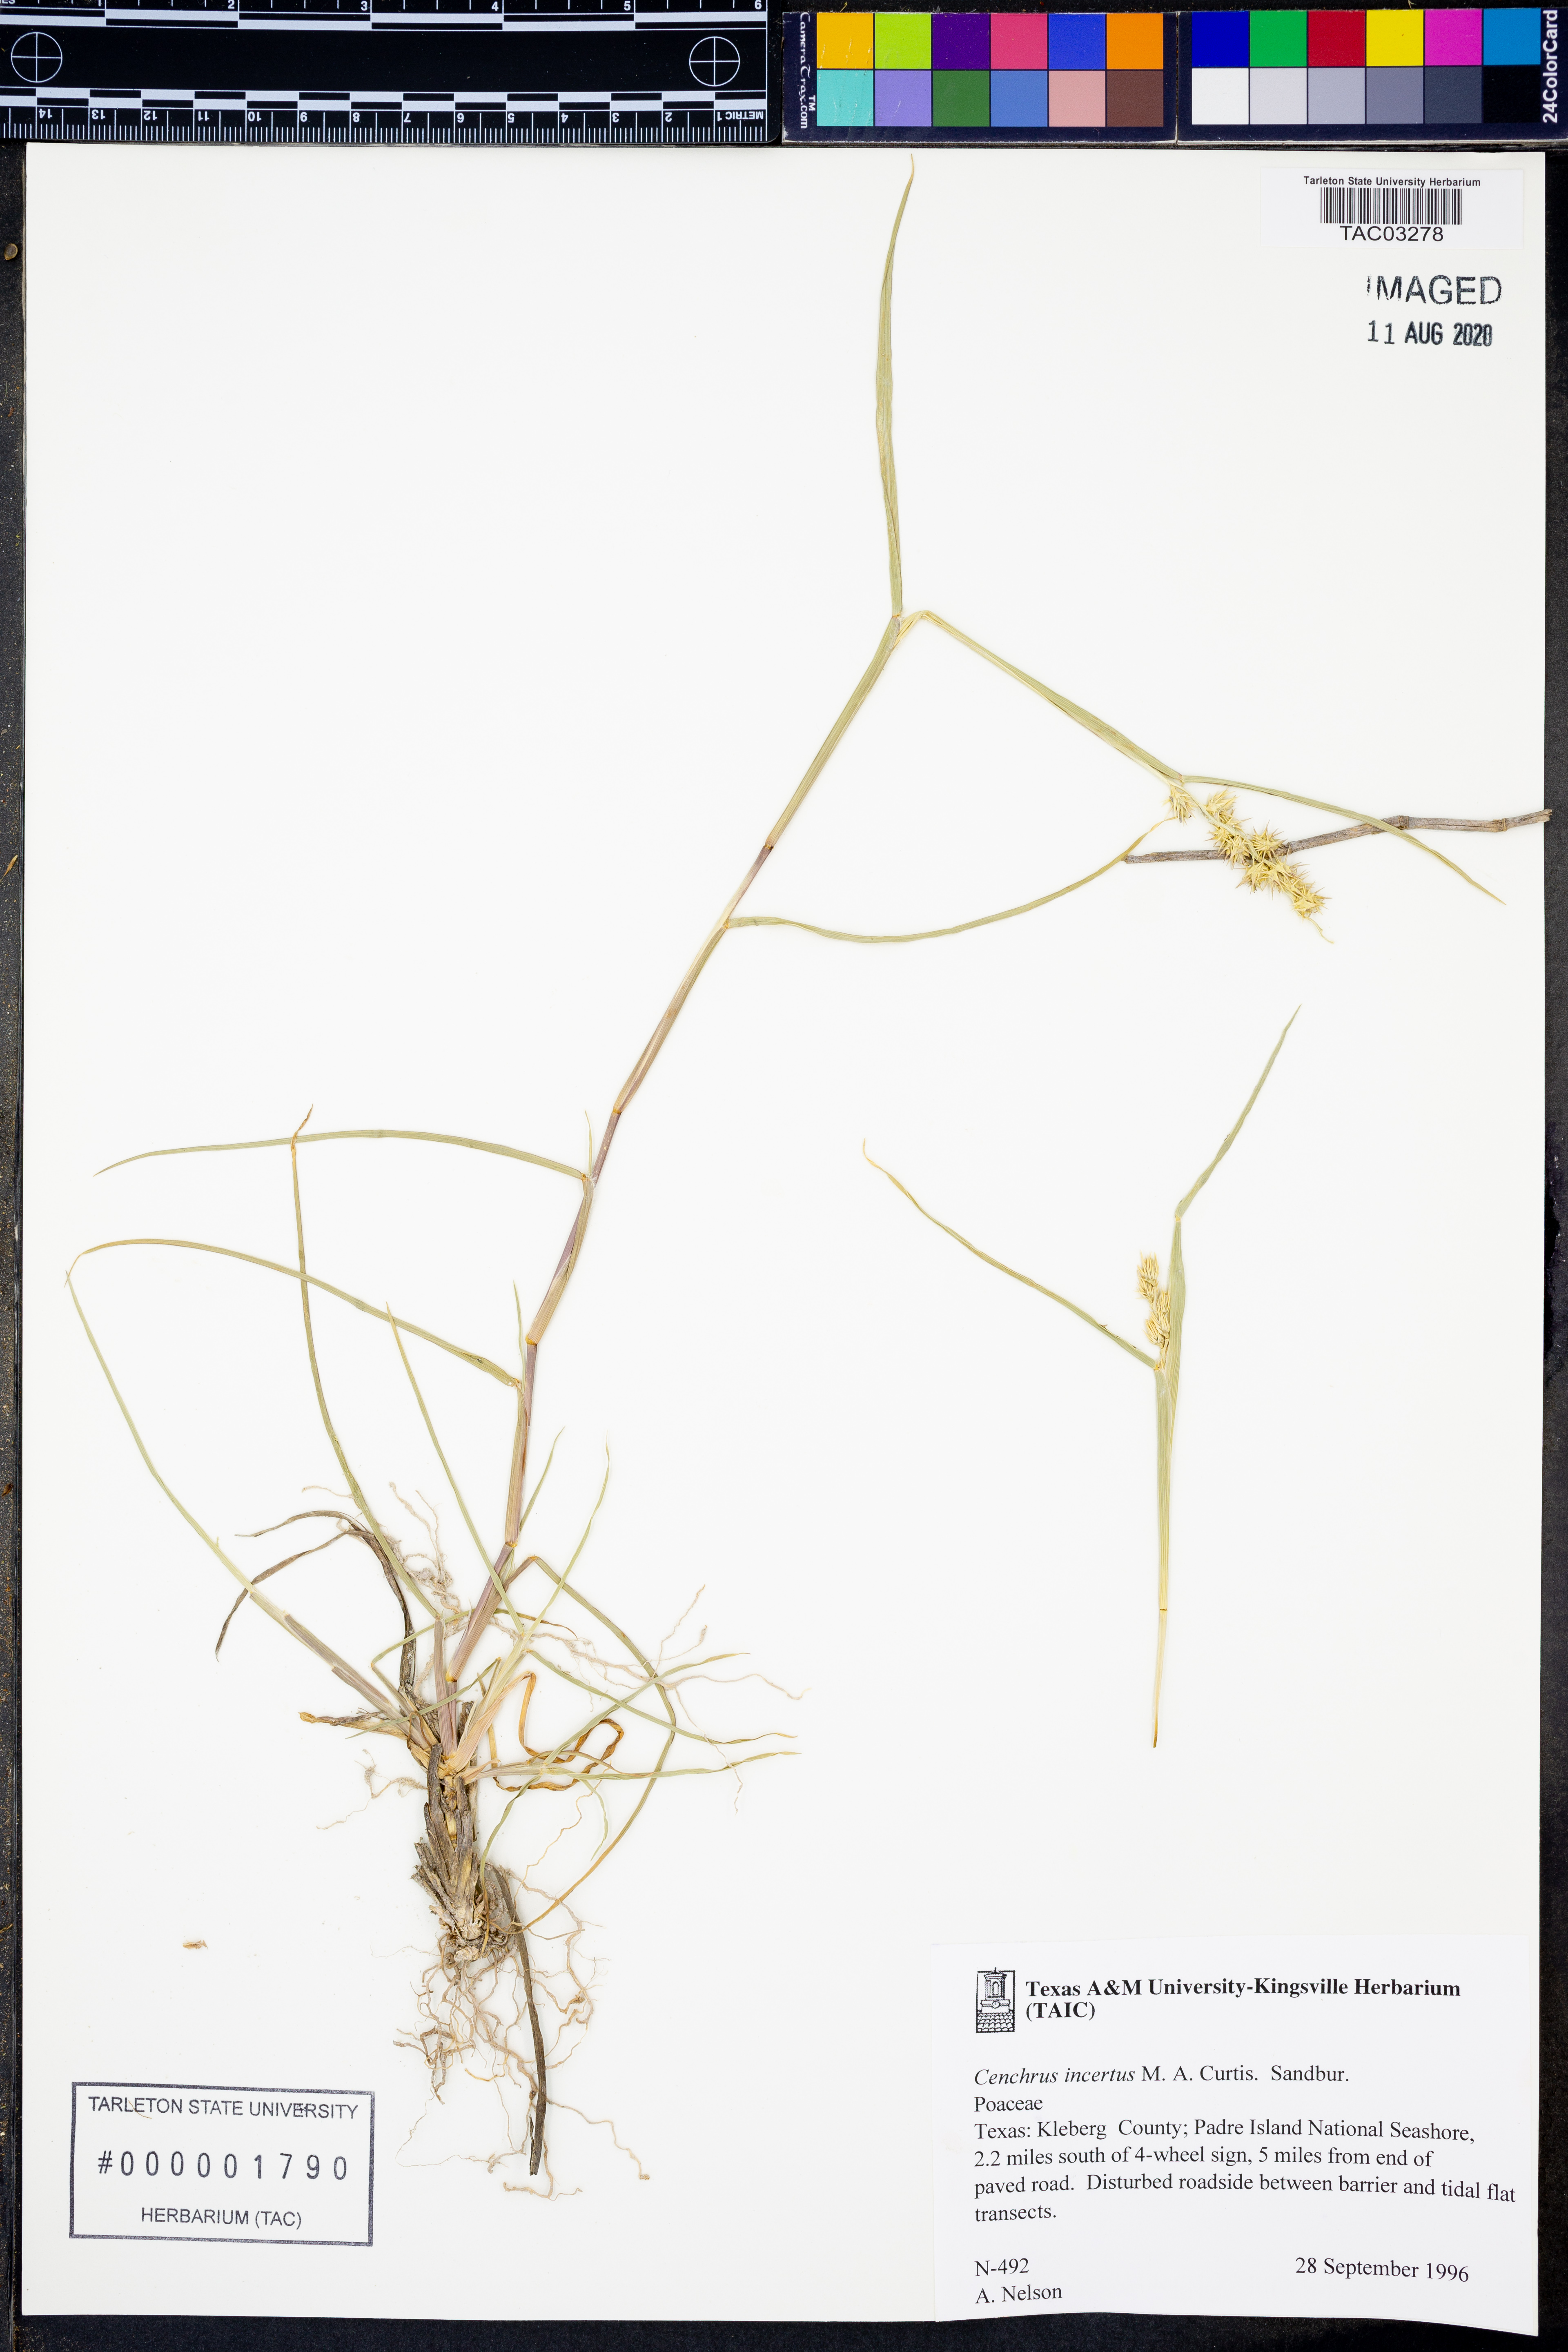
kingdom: Plantae
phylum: Tracheophyta
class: Liliopsida
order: Poales
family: Poaceae
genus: Cenchrus
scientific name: Cenchrus spinifex
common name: Coast sandbur
